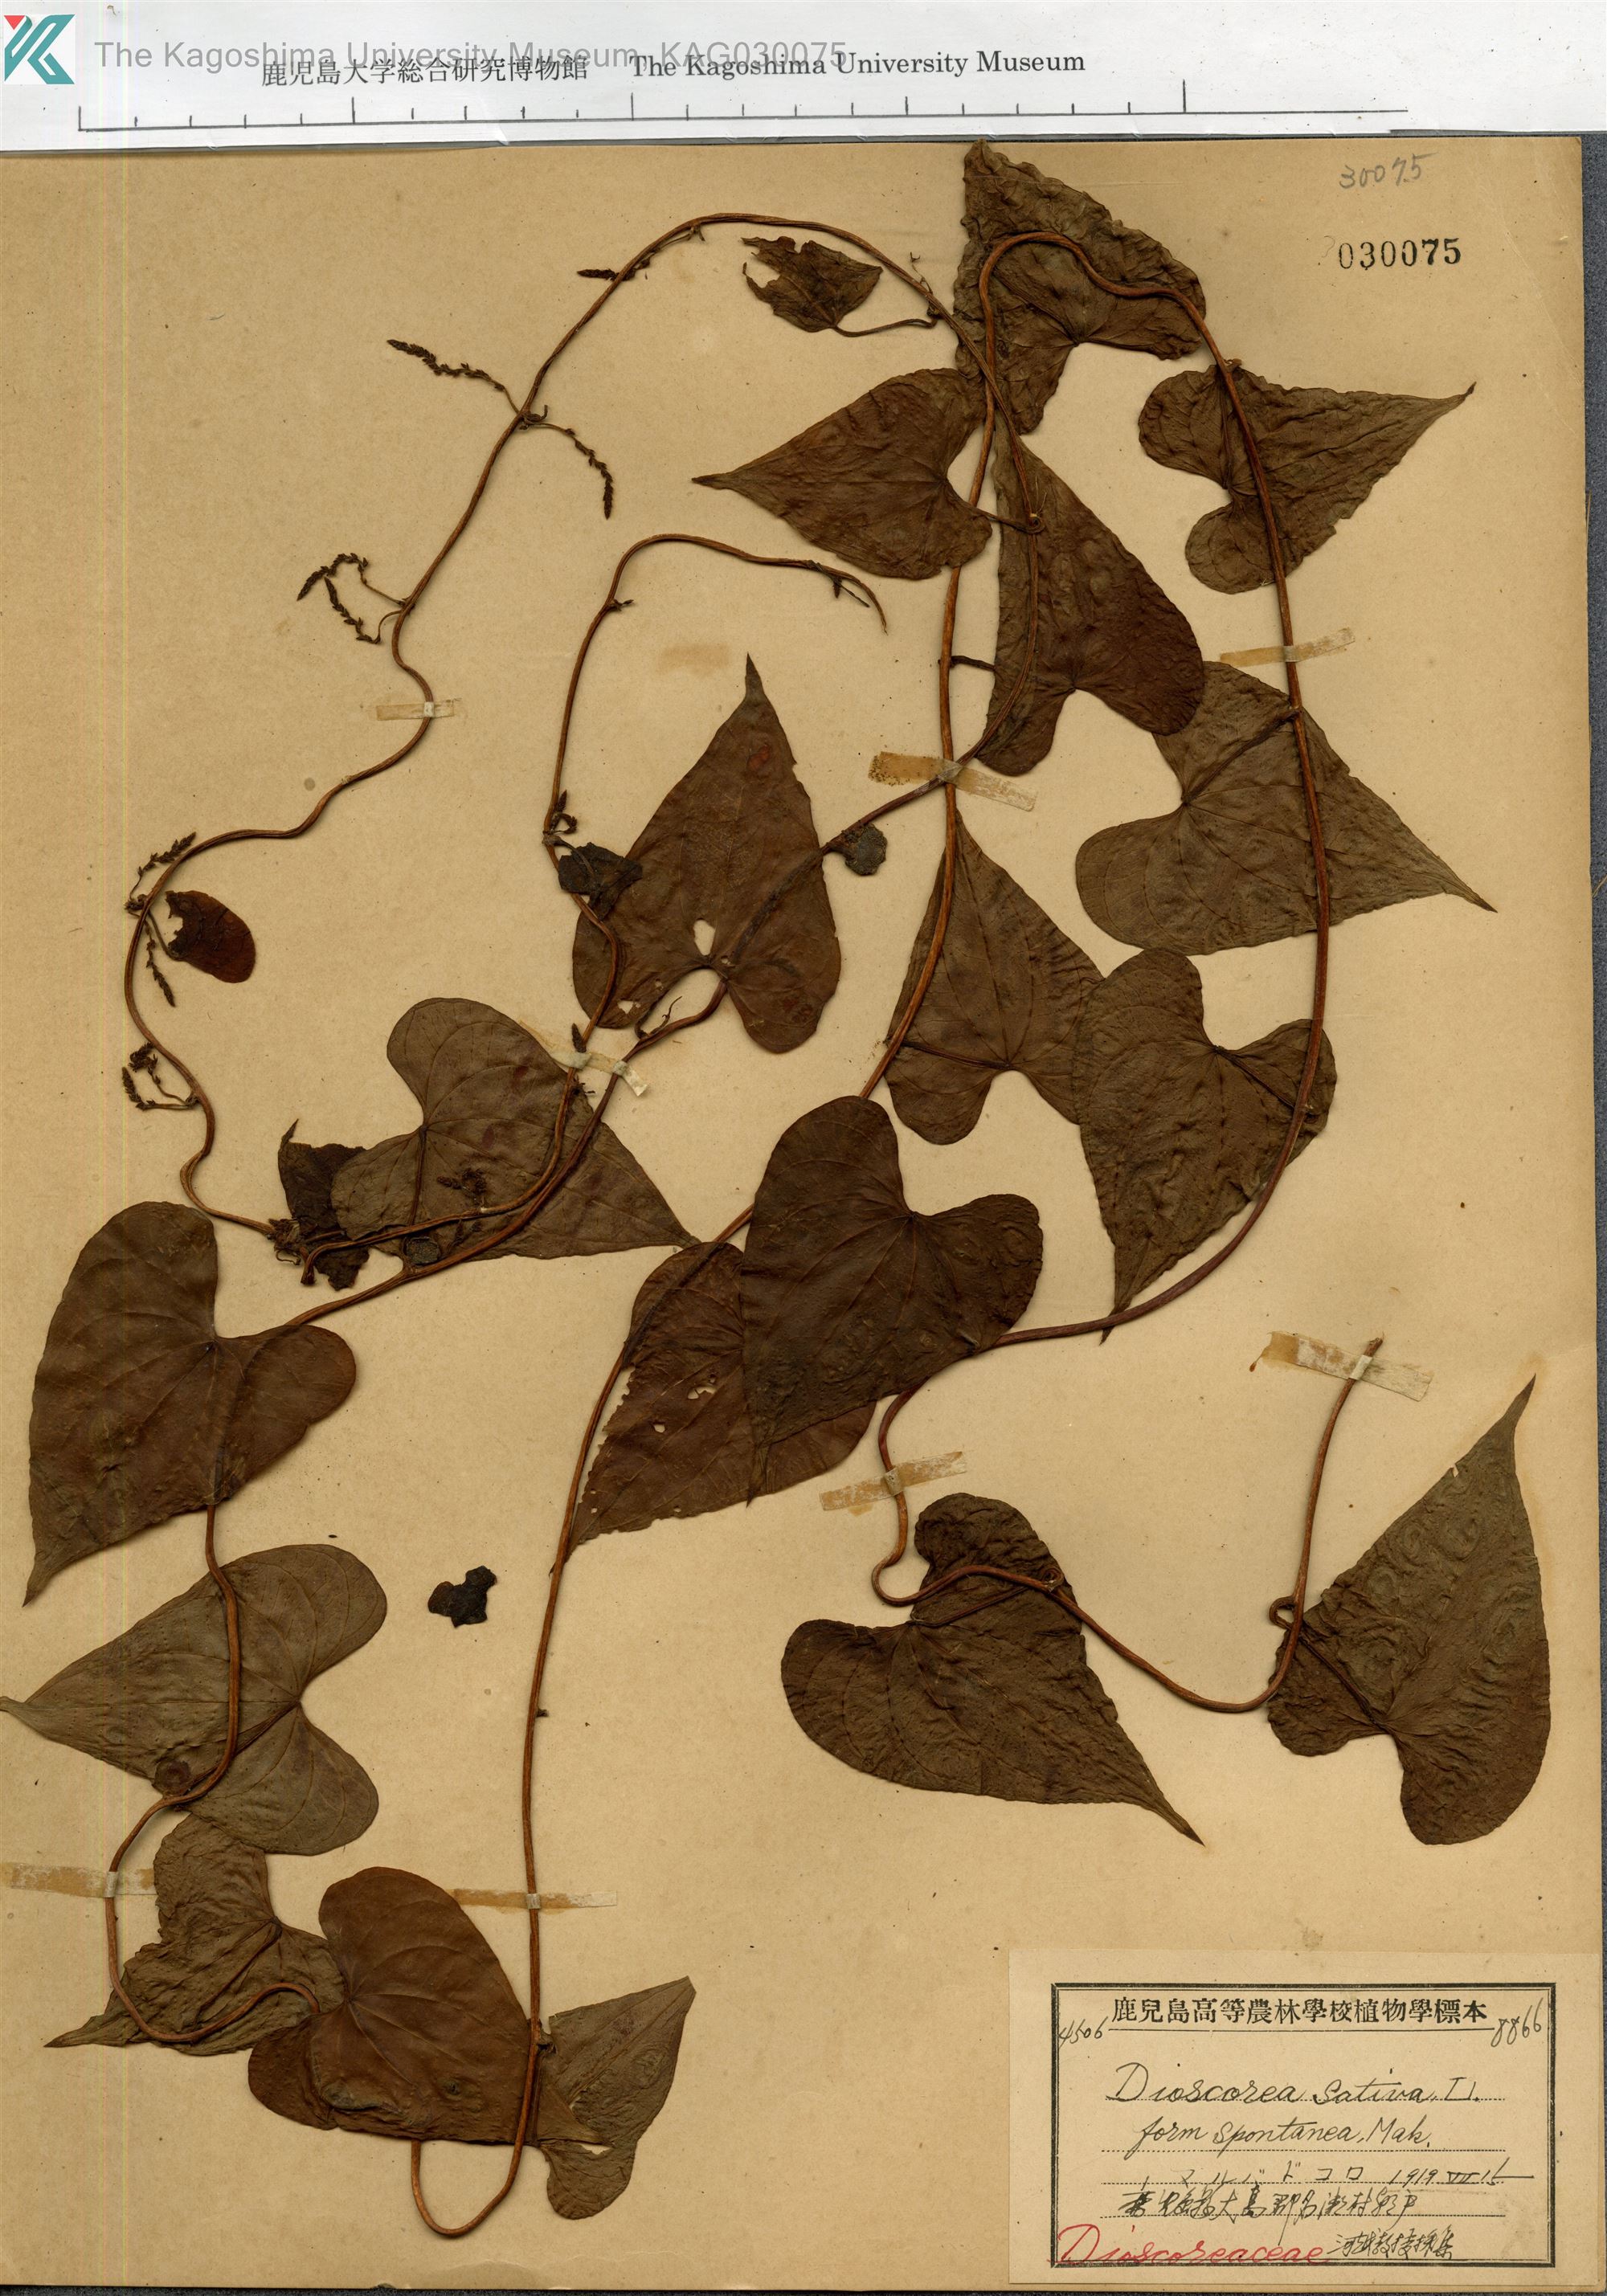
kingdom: Plantae
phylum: Tracheophyta
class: Liliopsida
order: Dioscoreales
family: Dioscoreaceae
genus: Dioscorea
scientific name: Dioscorea bulbifera
